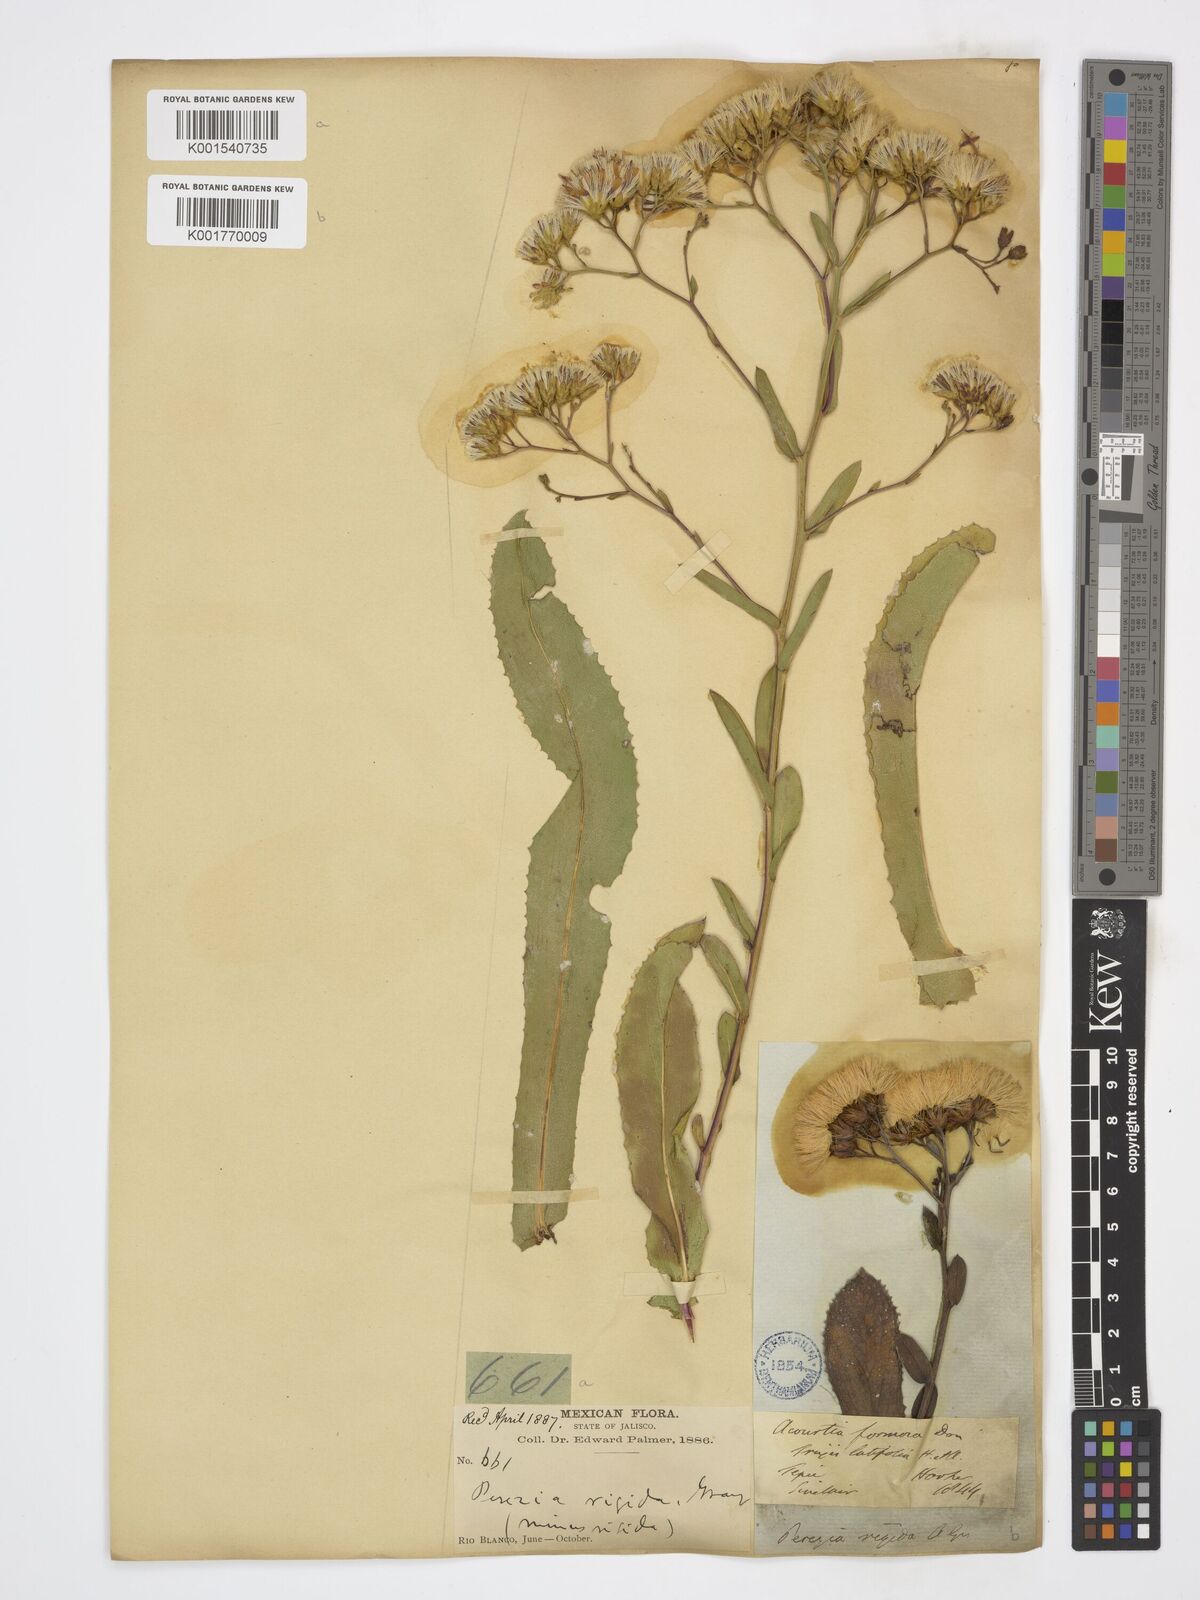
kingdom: Plantae
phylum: Tracheophyta
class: Magnoliopsida
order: Asterales
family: Asteraceae
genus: Acourtia
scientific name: Acourtia fruticosa
